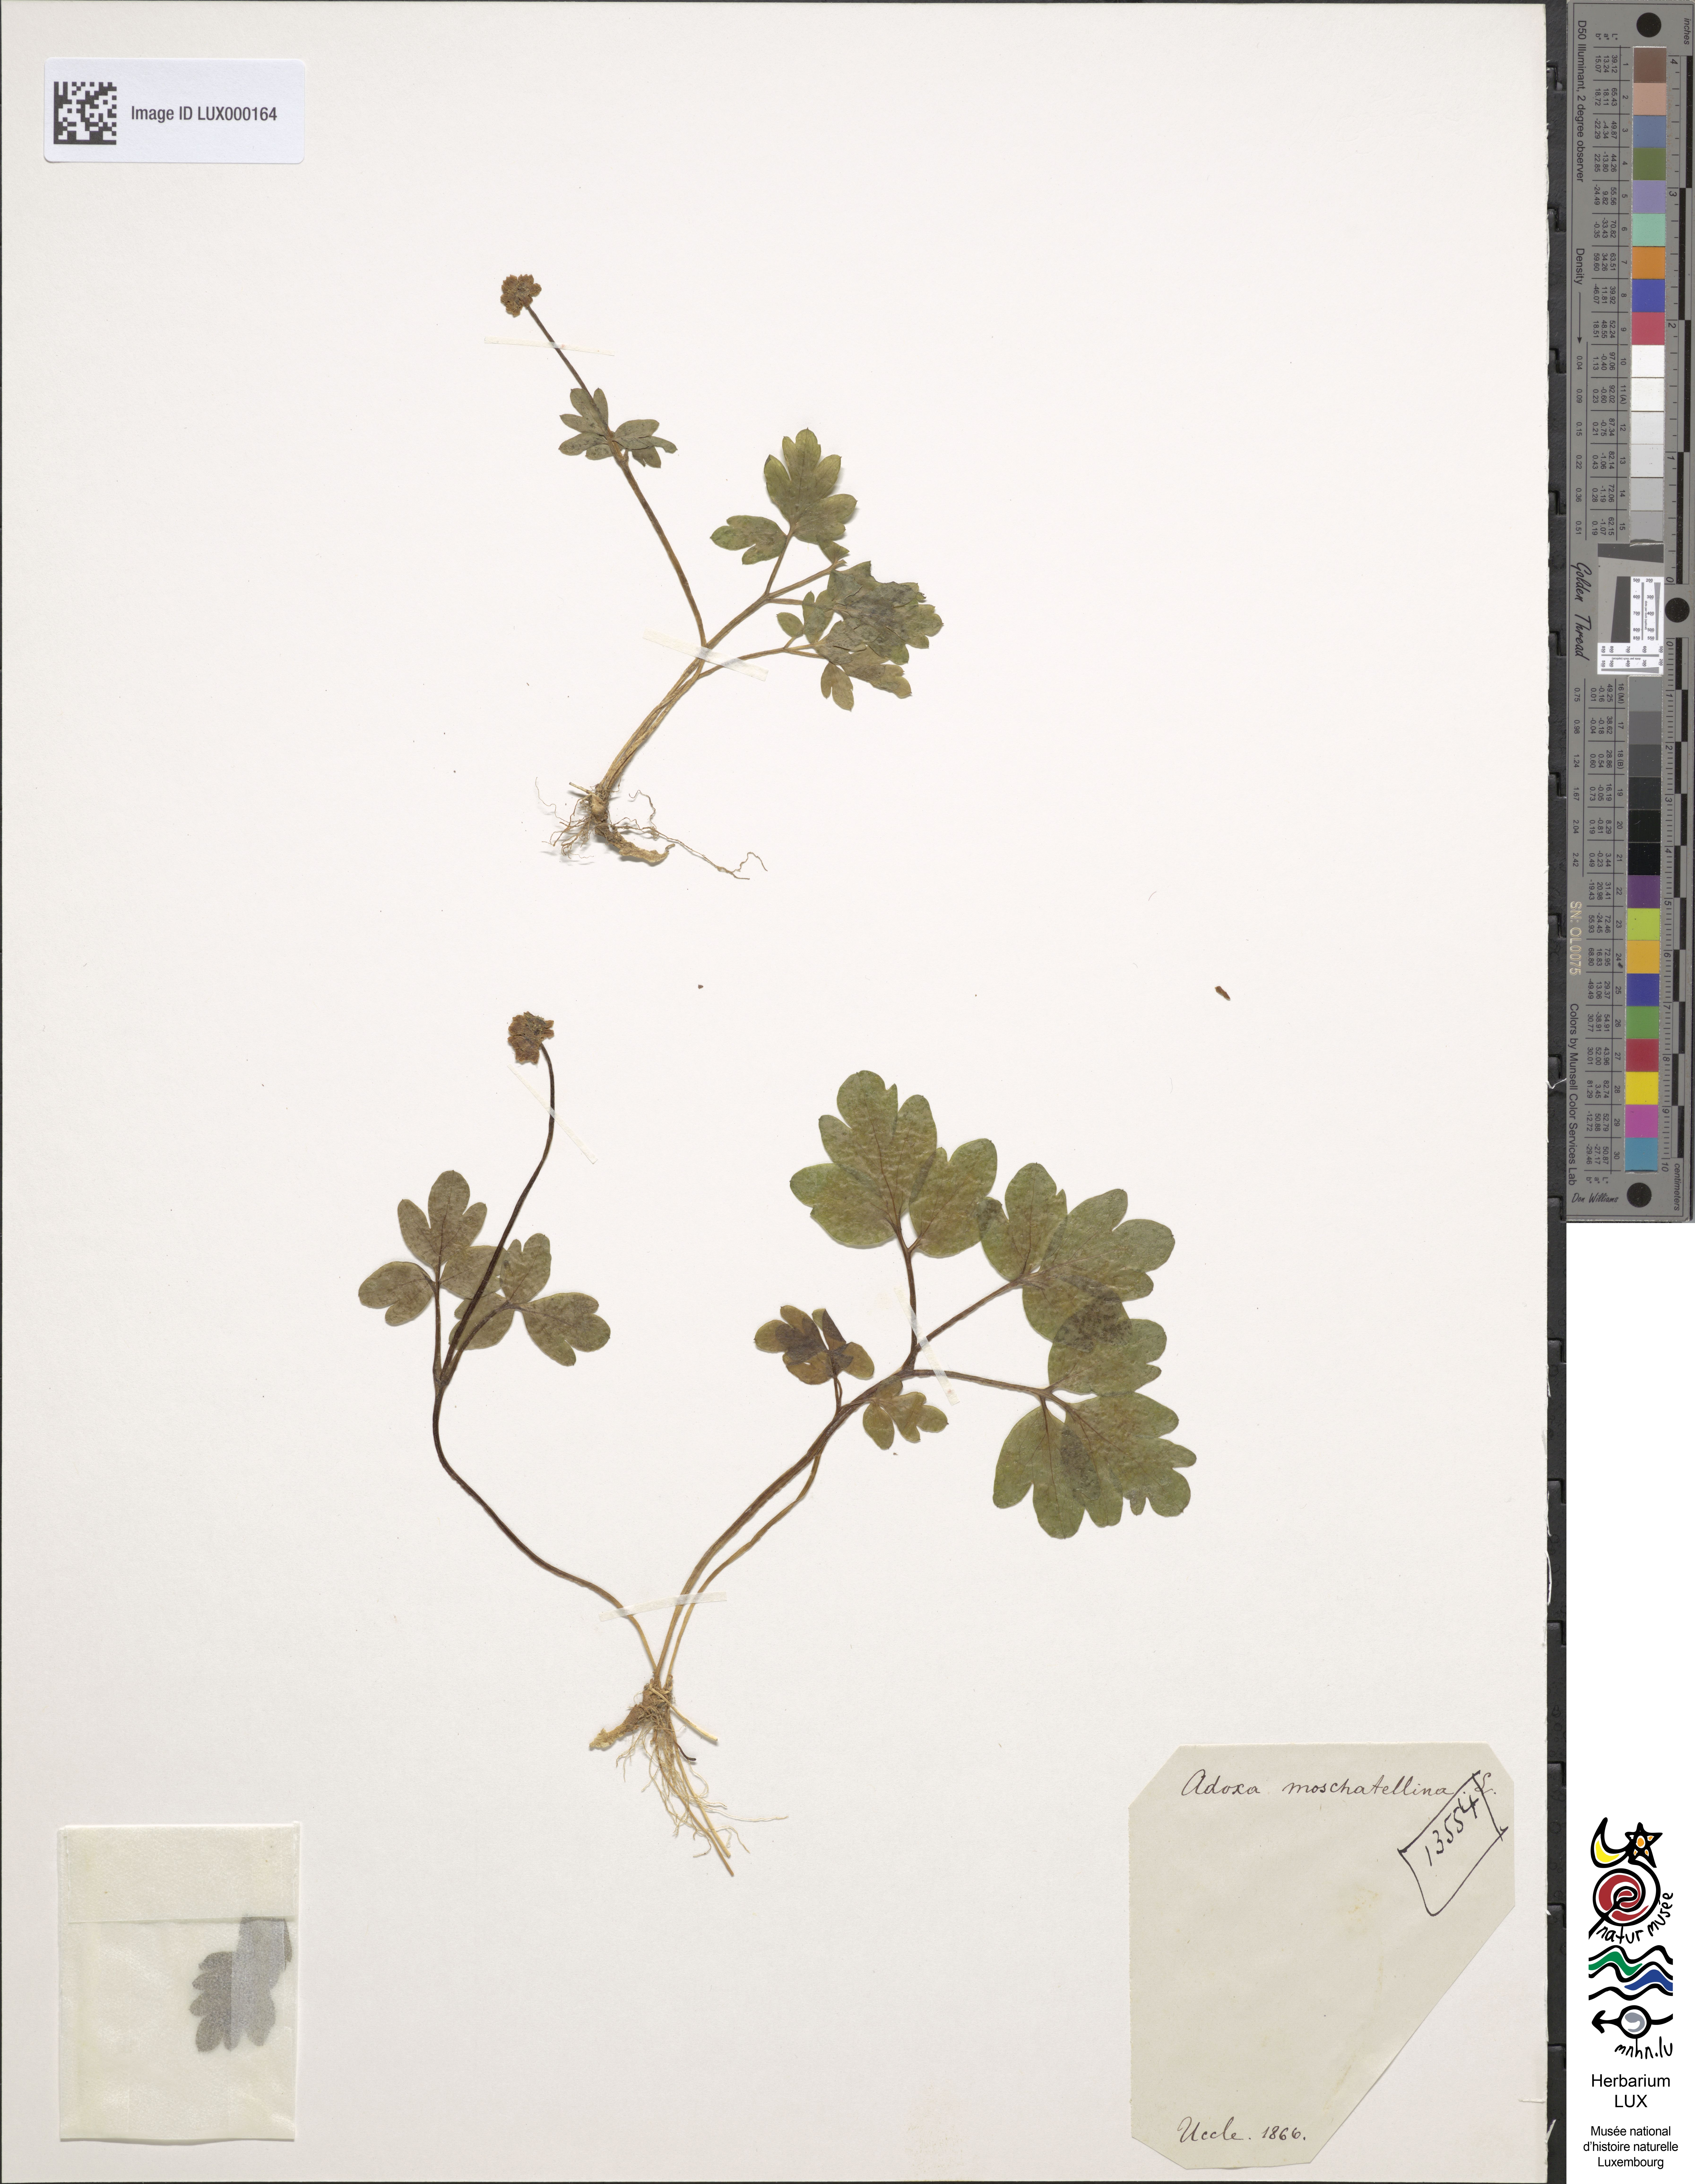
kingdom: Plantae
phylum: Tracheophyta
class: Magnoliopsida
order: Dipsacales
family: Viburnaceae
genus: Adoxa
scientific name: Adoxa moschatellina
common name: Moschatel
